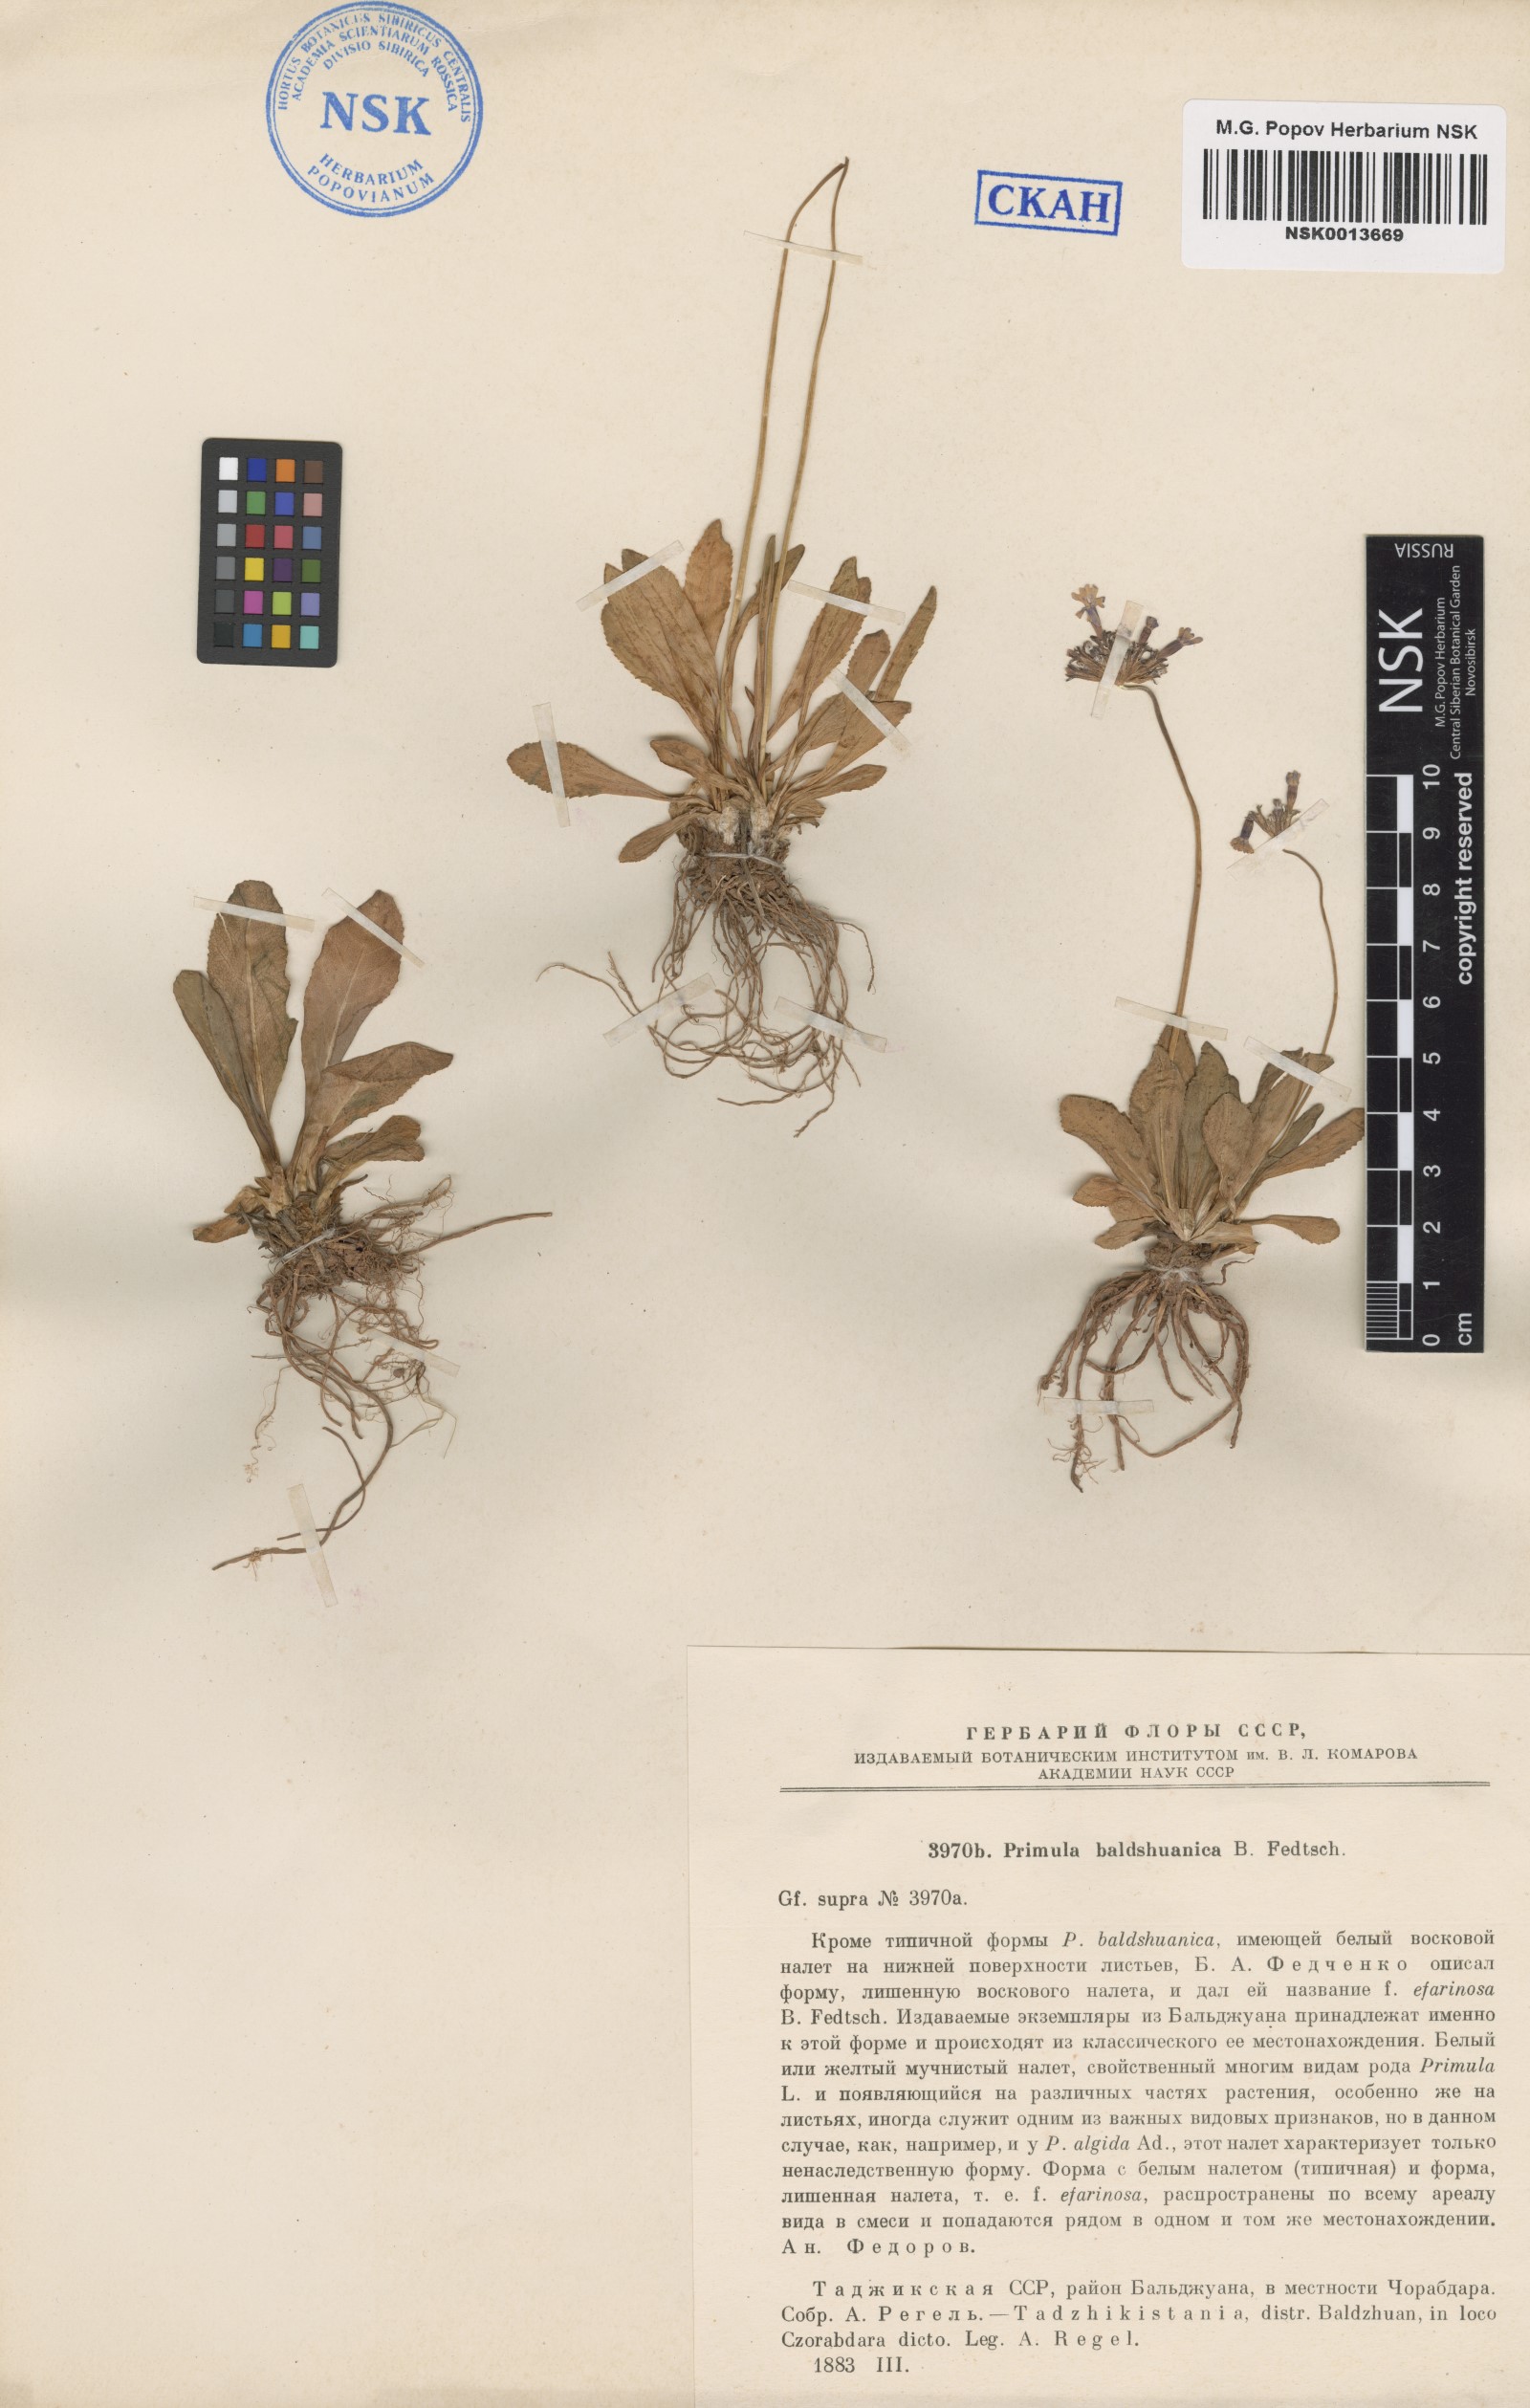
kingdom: Plantae
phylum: Tracheophyta
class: Magnoliopsida
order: Ericales
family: Primulaceae
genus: Primula
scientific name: Primula baldshuanica
